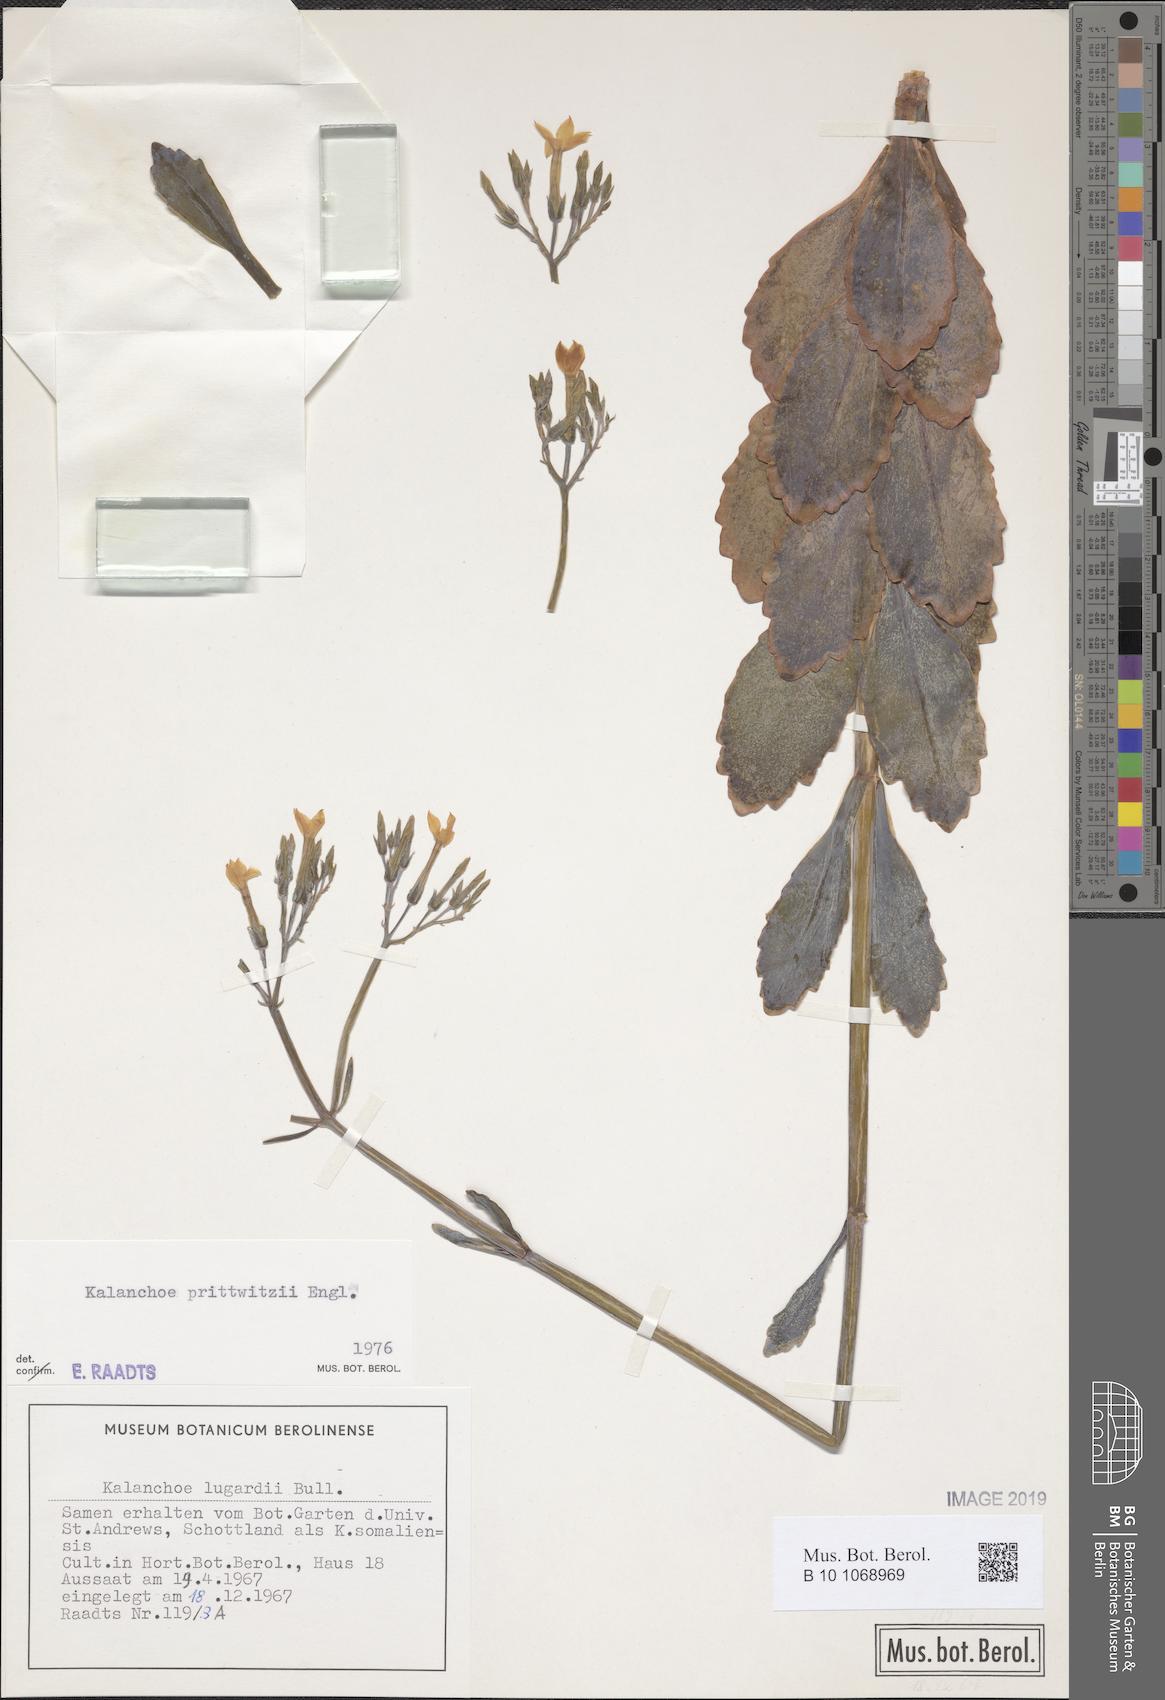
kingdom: Plantae
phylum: Tracheophyta
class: Magnoliopsida
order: Saxifragales
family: Crassulaceae
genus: Kalanchoe
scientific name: Kalanchoe prittwitzii
